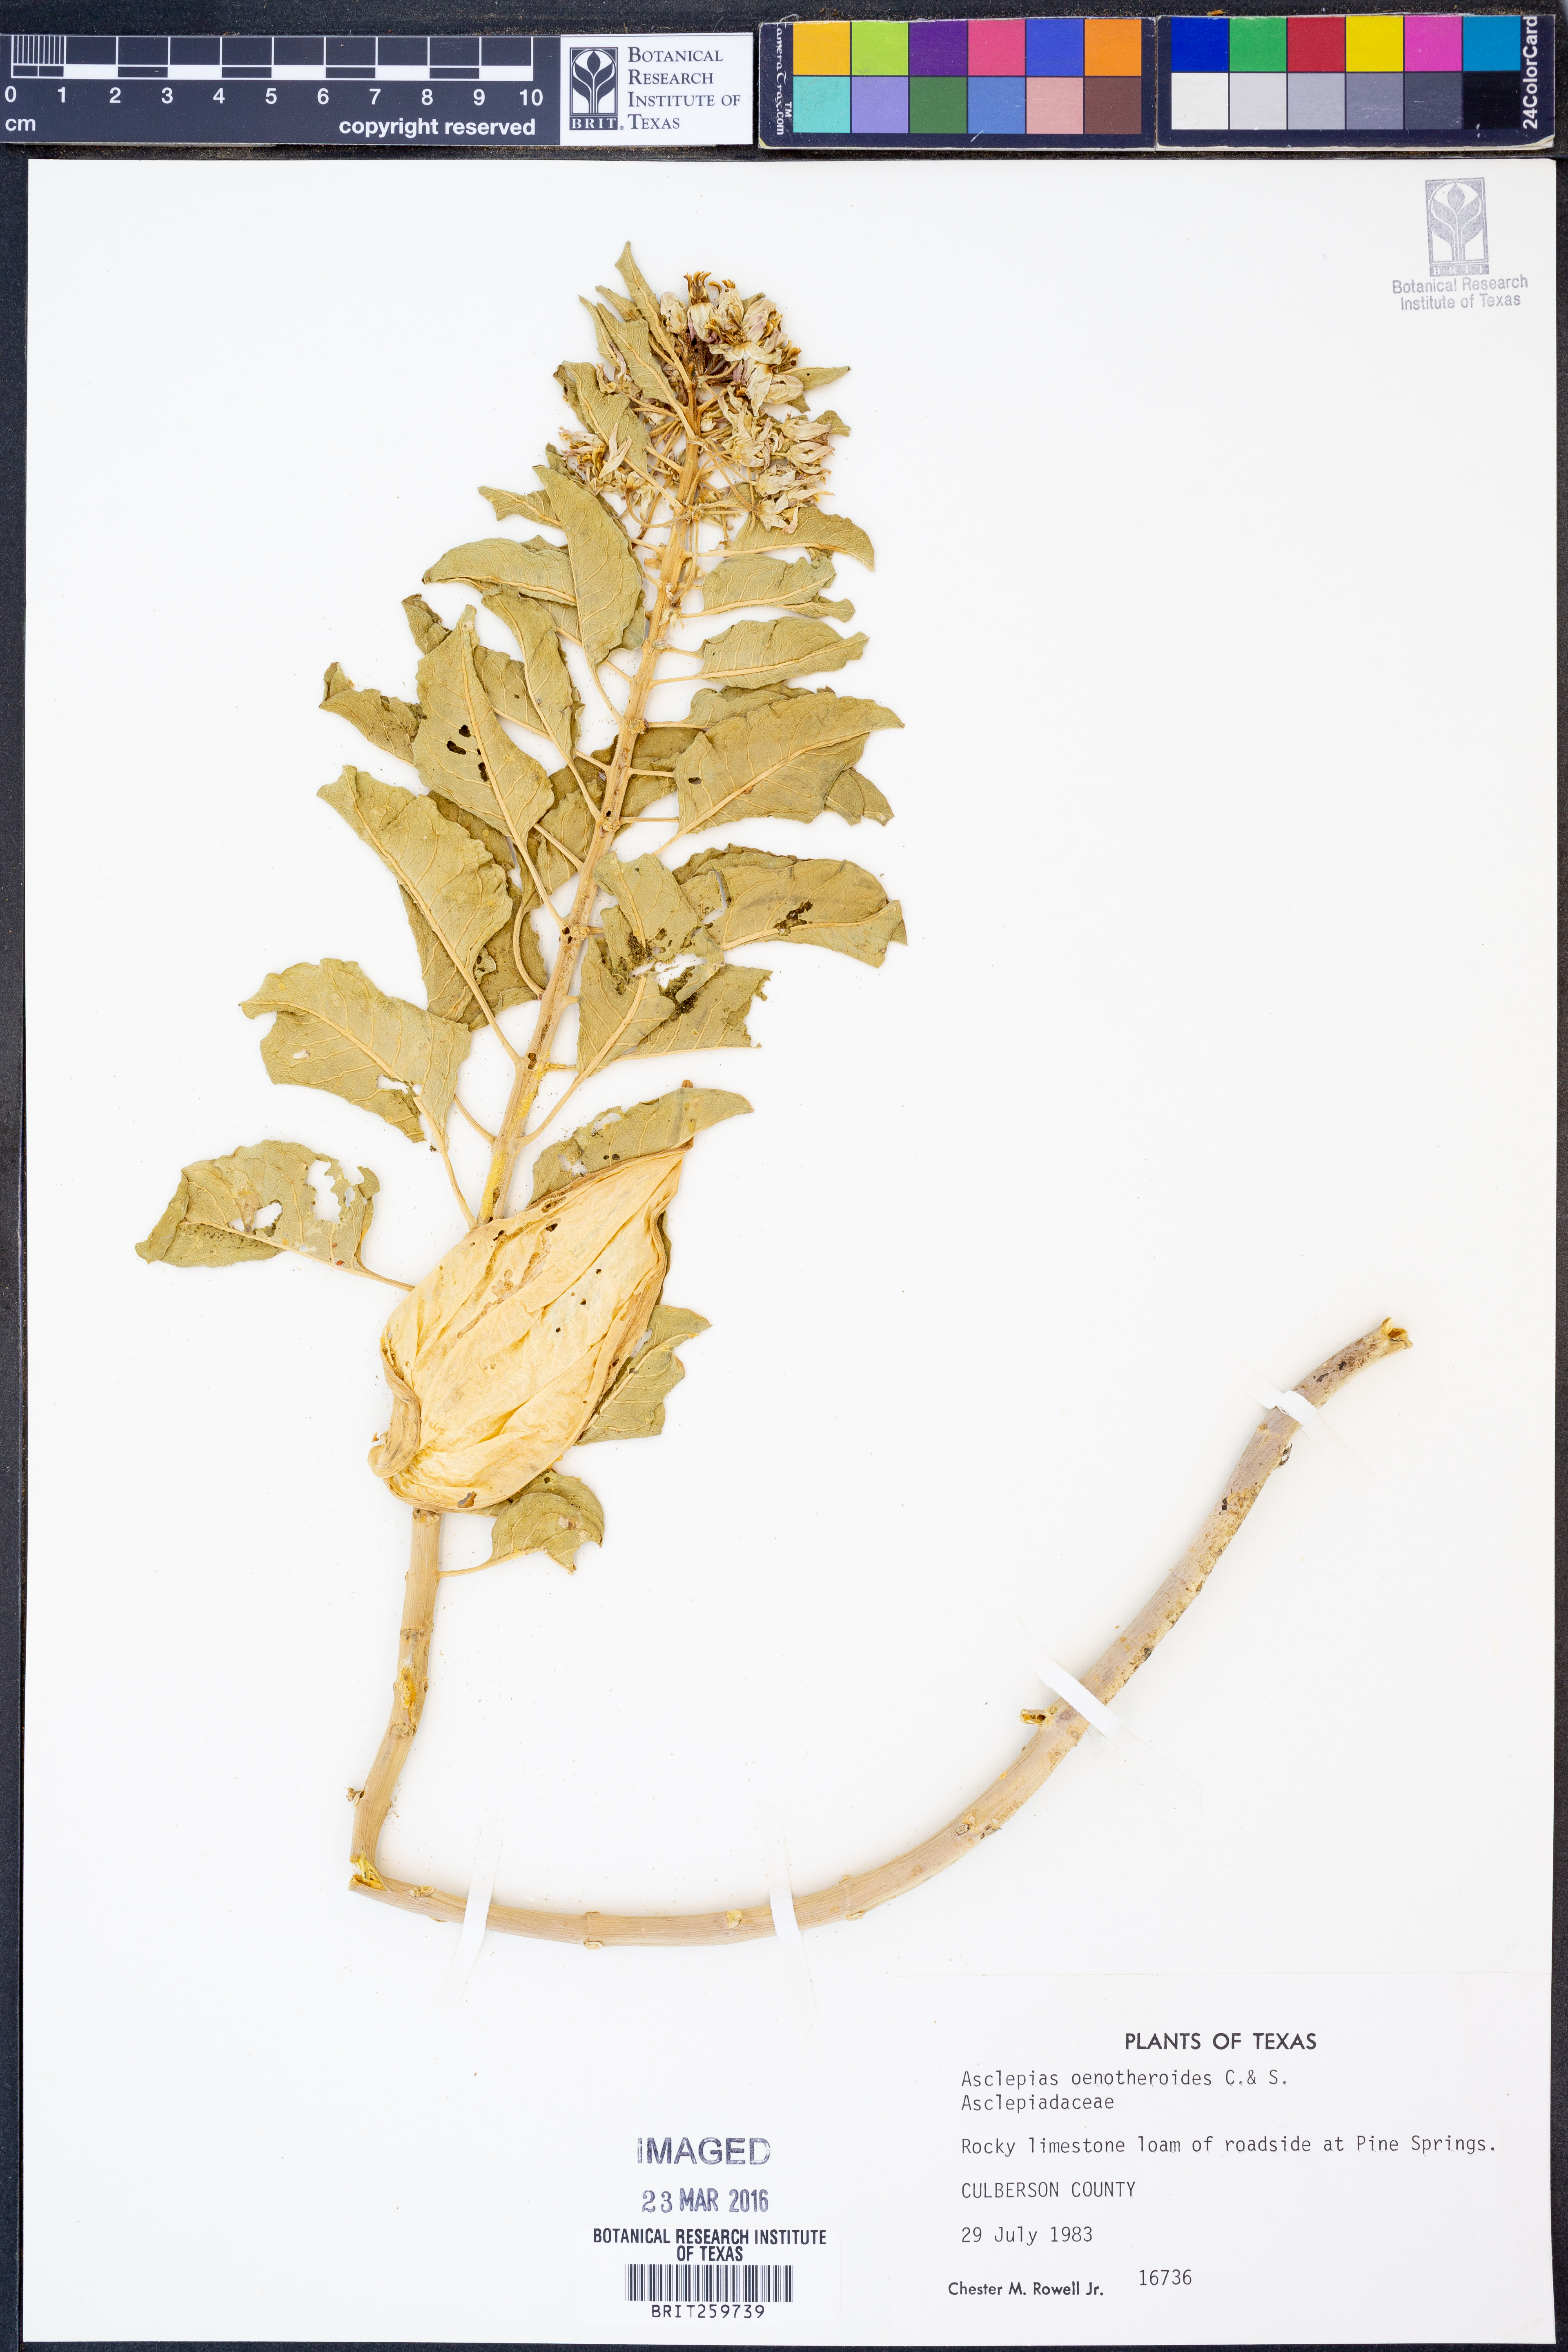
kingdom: Plantae
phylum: Tracheophyta
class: Magnoliopsida
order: Gentianales
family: Apocynaceae
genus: Asclepias
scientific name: Asclepias oenotheroides
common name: Zizotes milkweed
